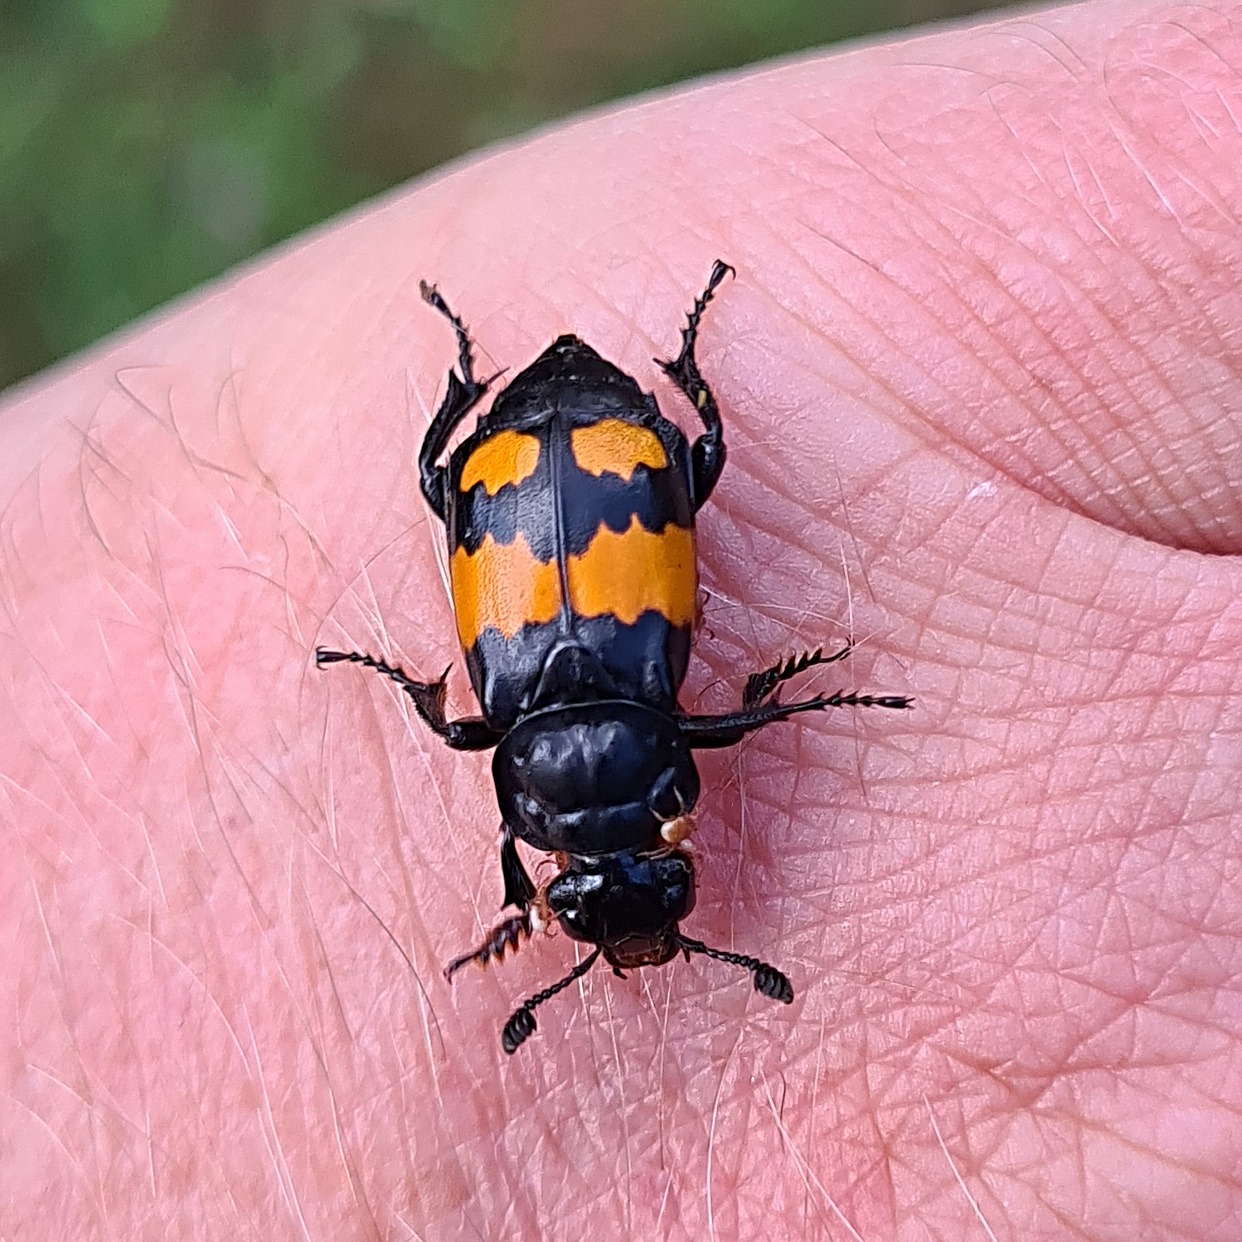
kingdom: Animalia
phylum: Arthropoda
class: Insecta
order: Coleoptera
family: Staphylinidae
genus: Nicrophorus
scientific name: Nicrophorus vespilloides
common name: Sortkøllet ådselgraver
